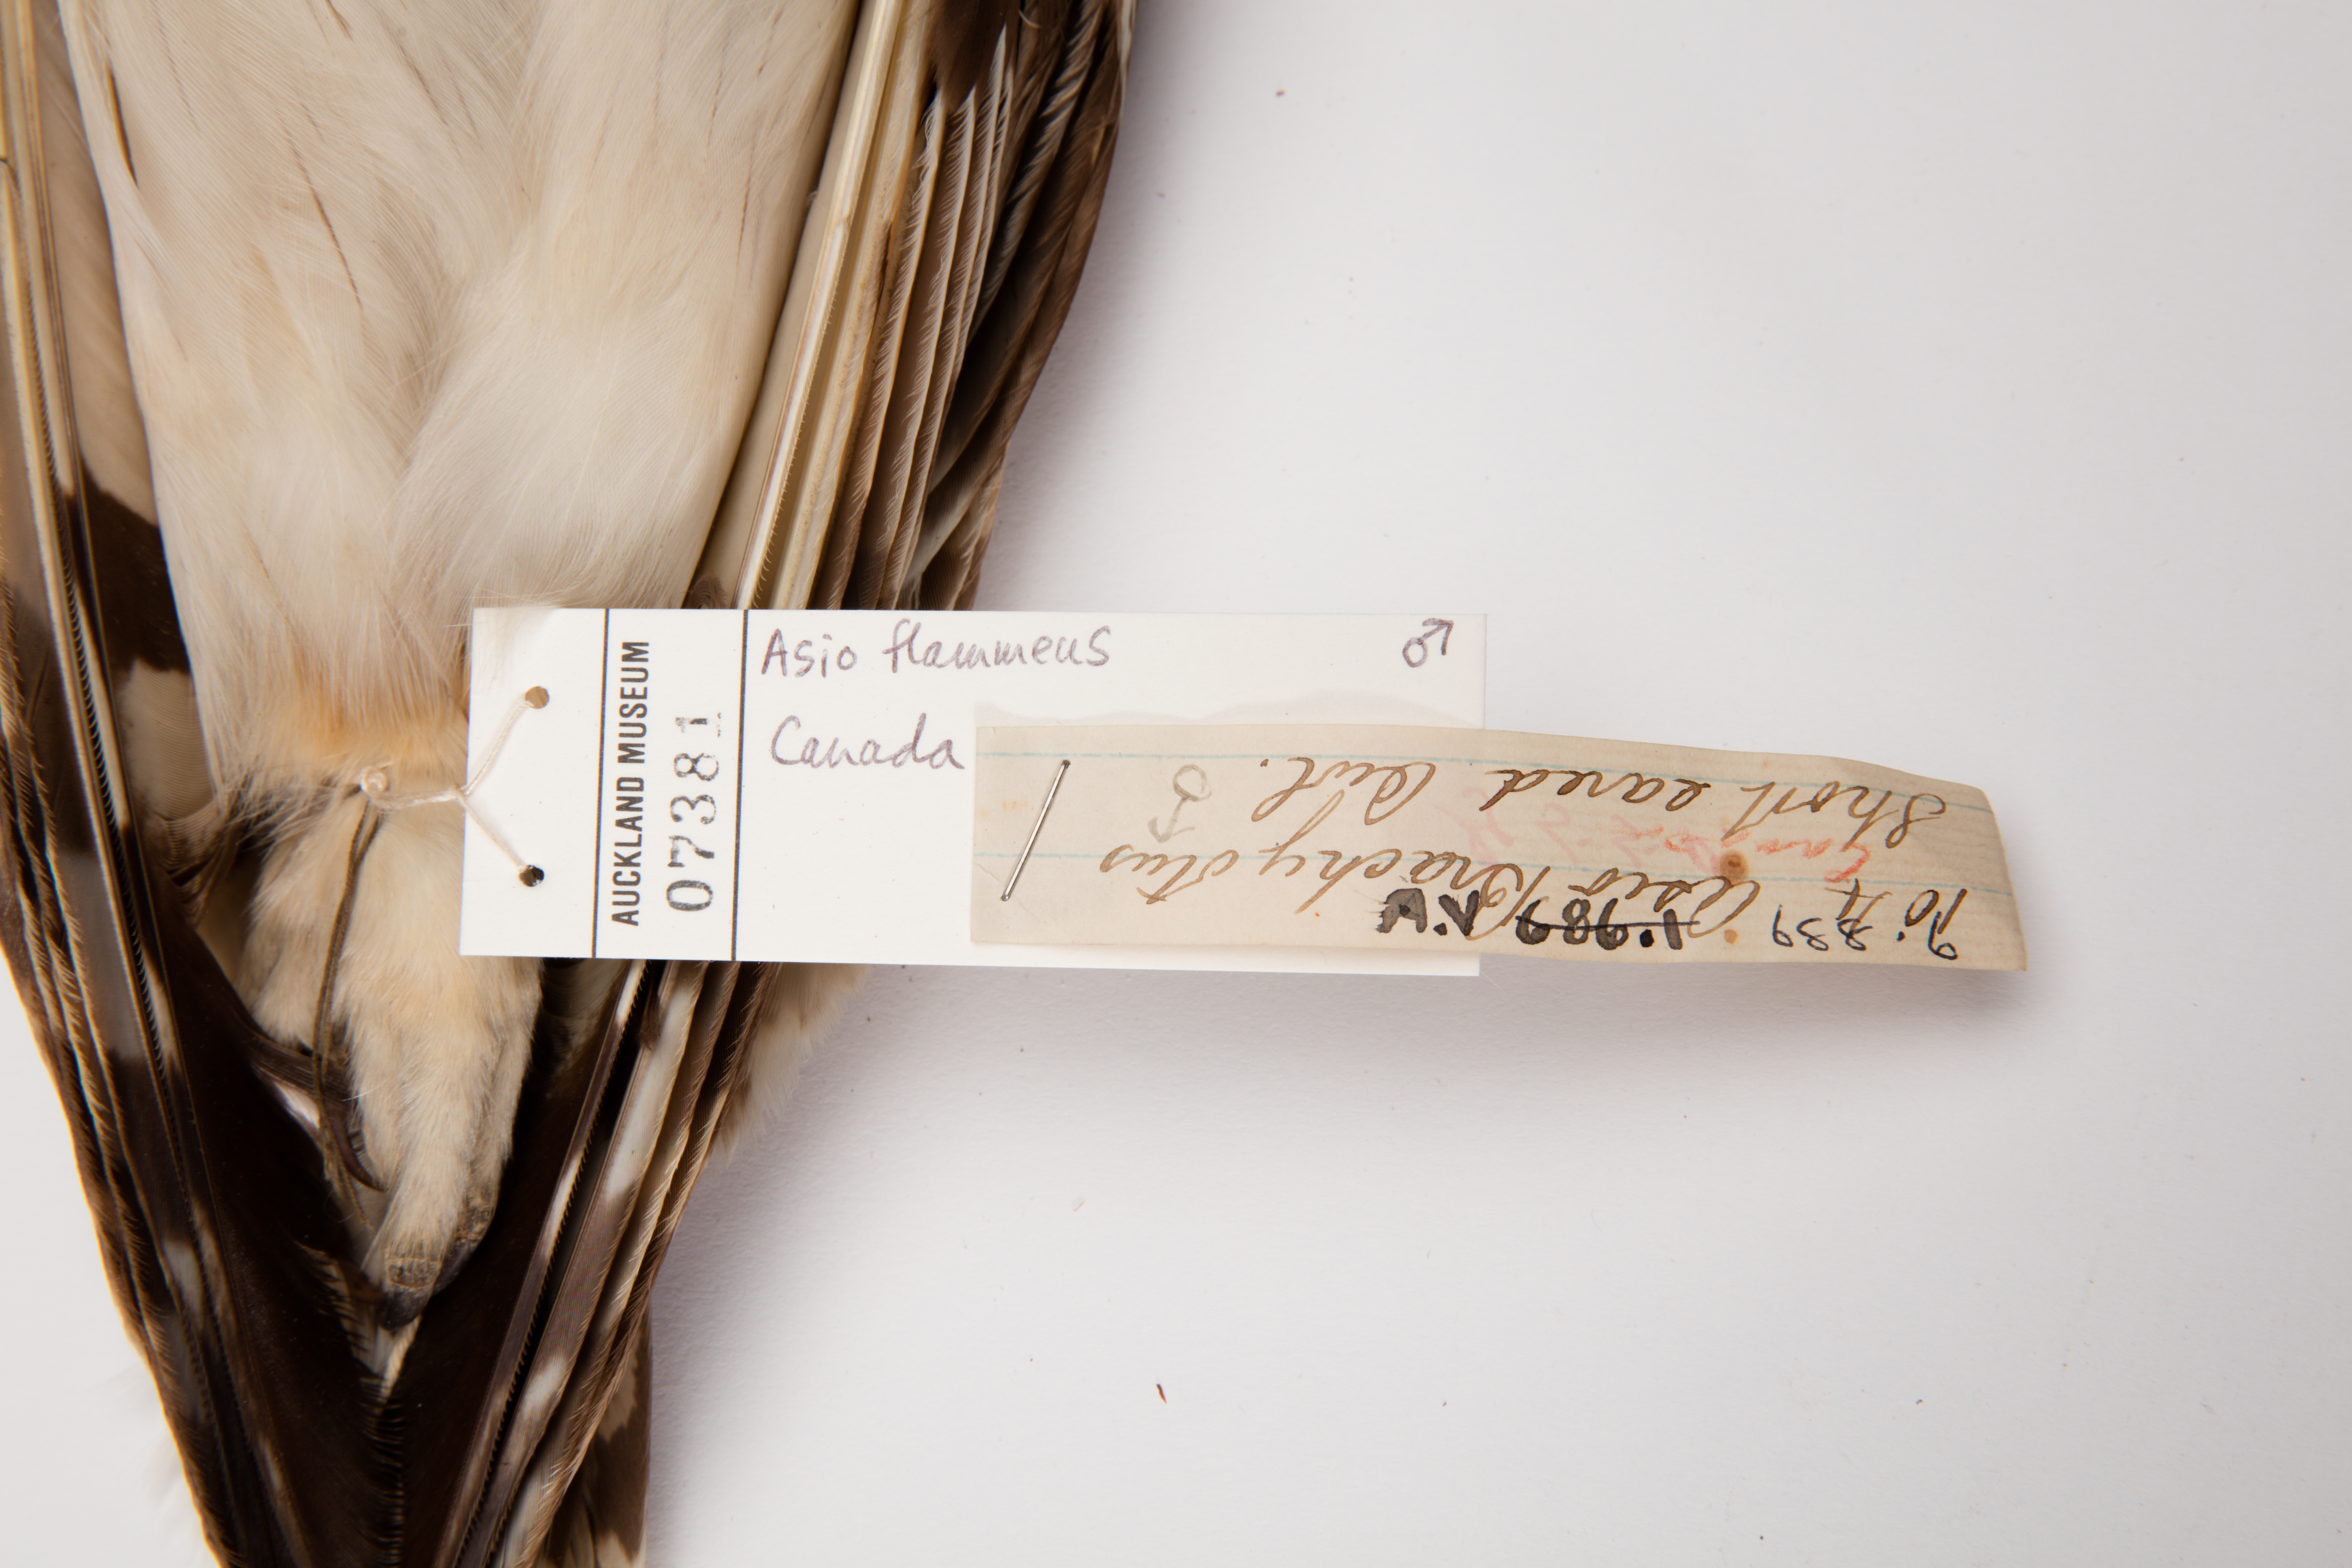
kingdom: Animalia
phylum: Chordata
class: Aves
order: Strigiformes
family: Strigidae
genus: Asio
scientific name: Asio flammeus
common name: Short-eared owl
